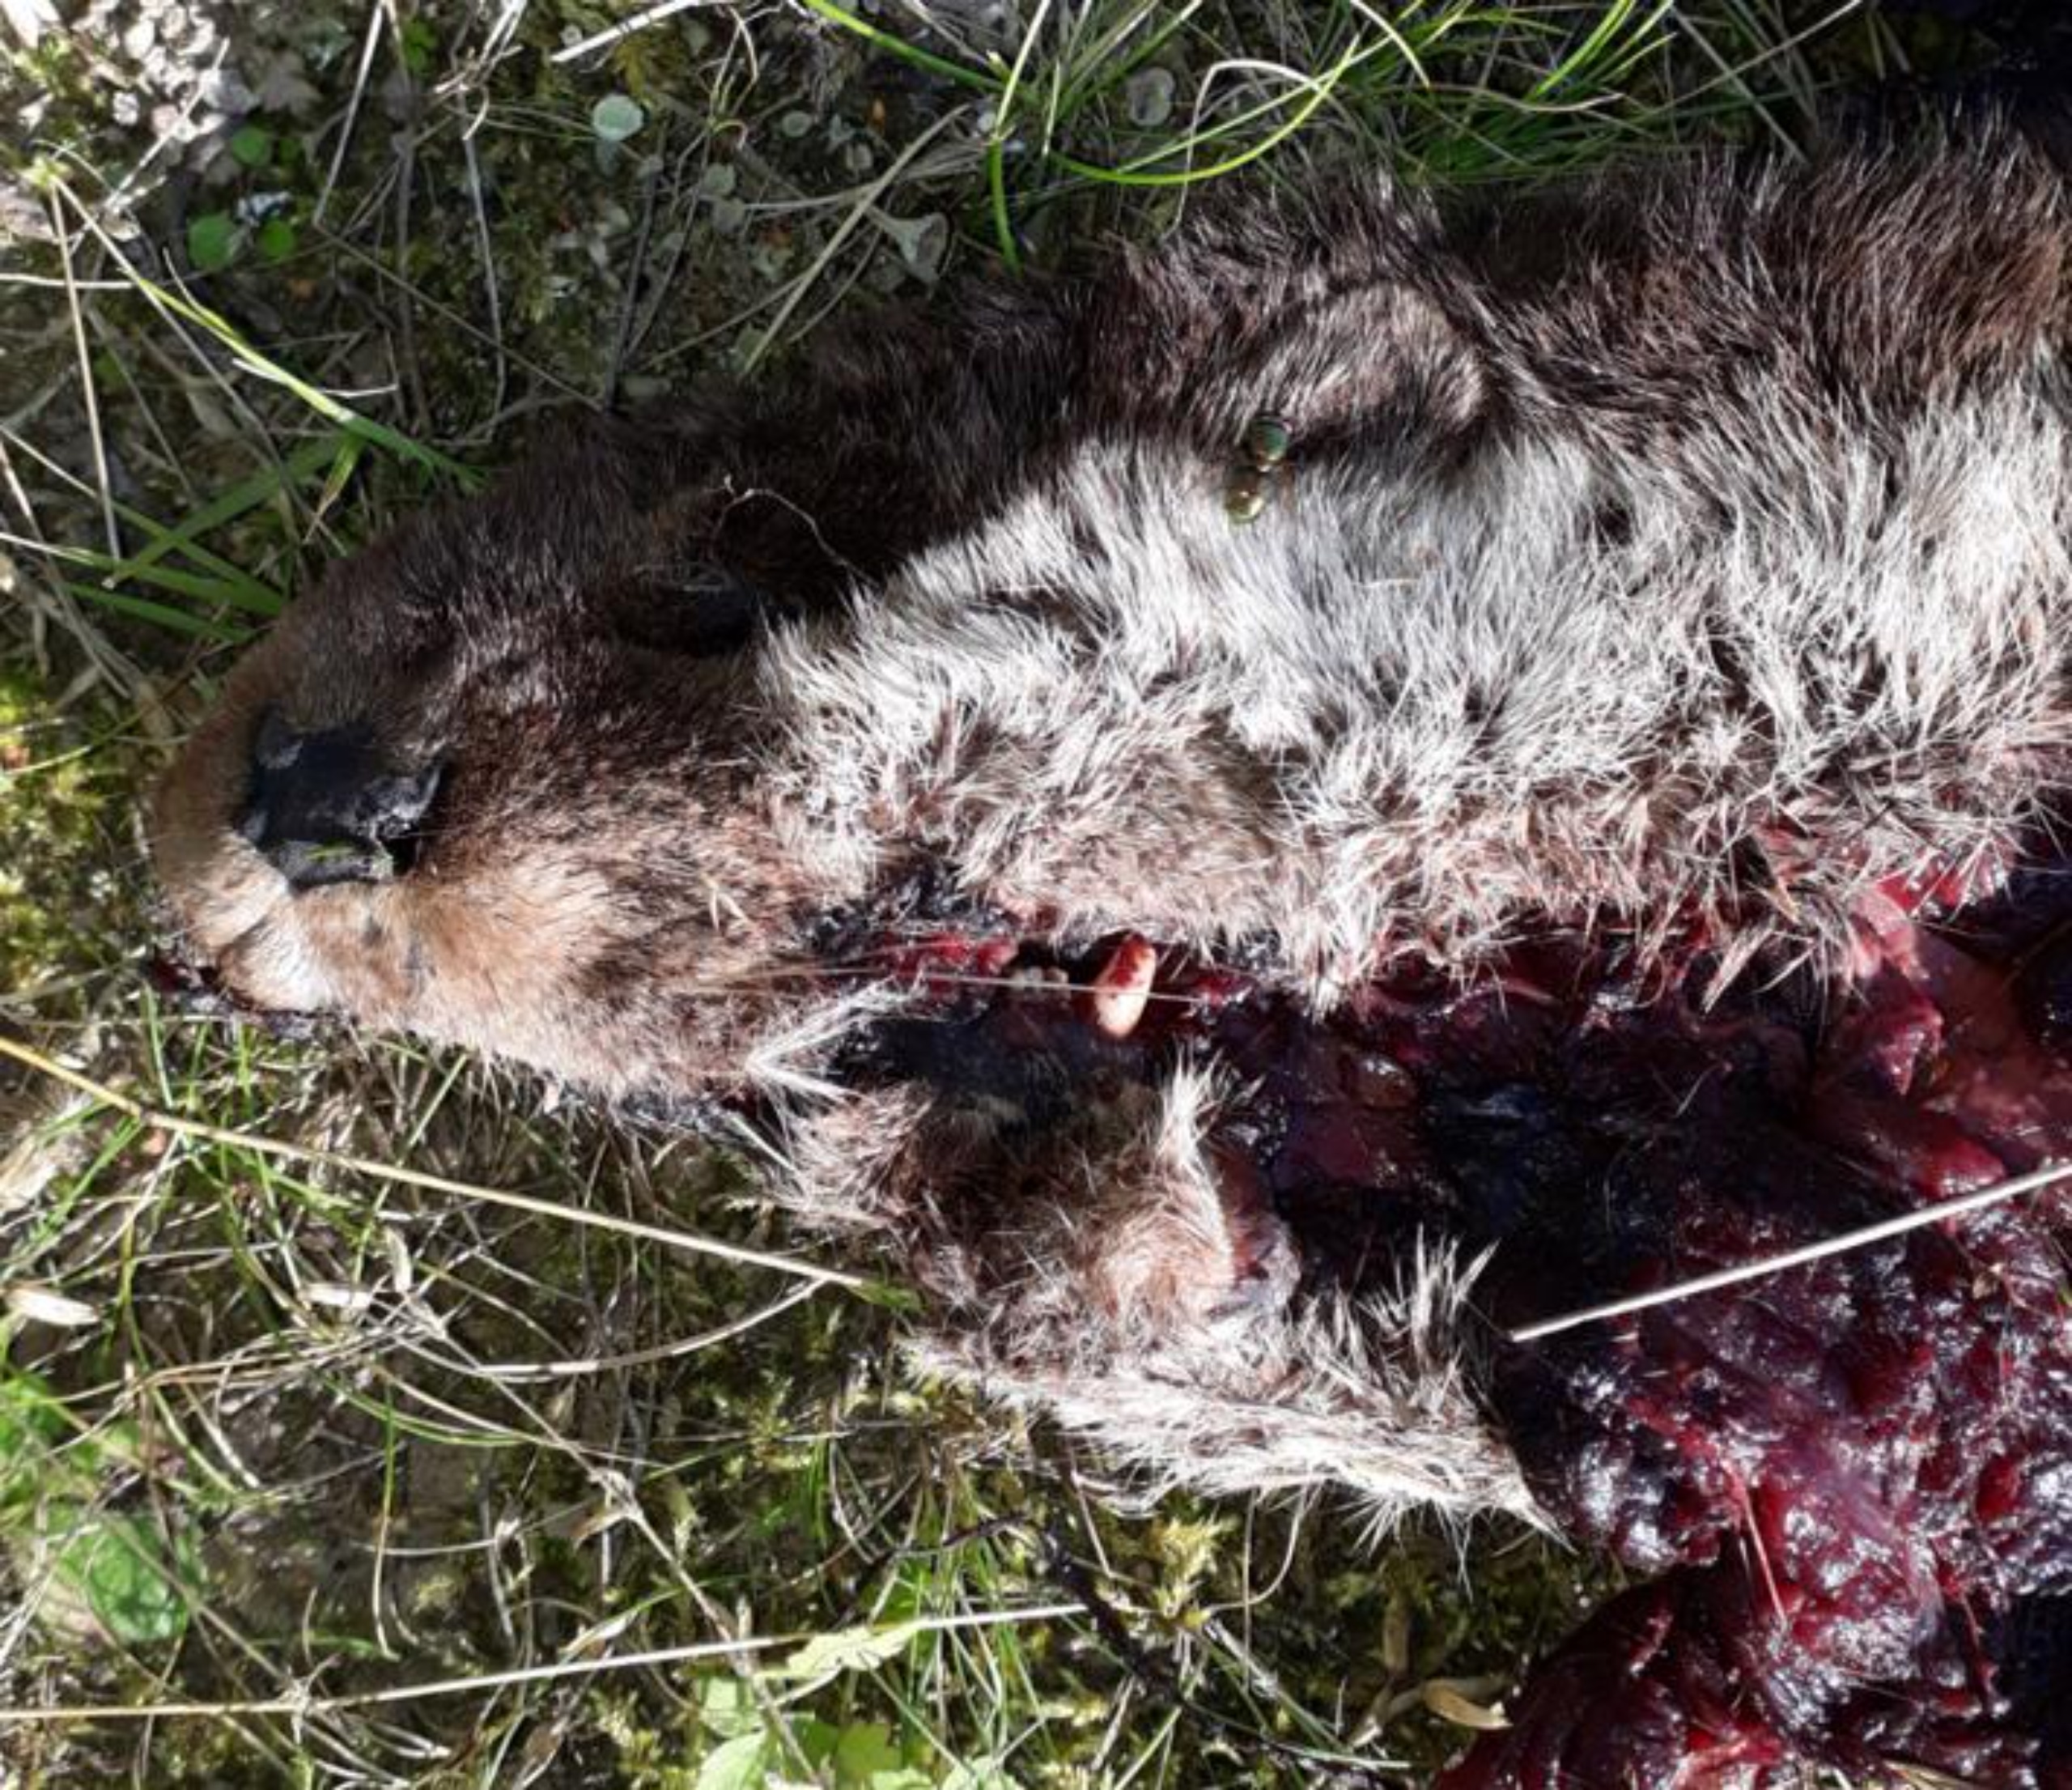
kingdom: Animalia
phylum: Chordata
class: Mammalia
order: Carnivora
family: Mustelidae
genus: Lutra
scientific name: Lutra lutra
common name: Odder
